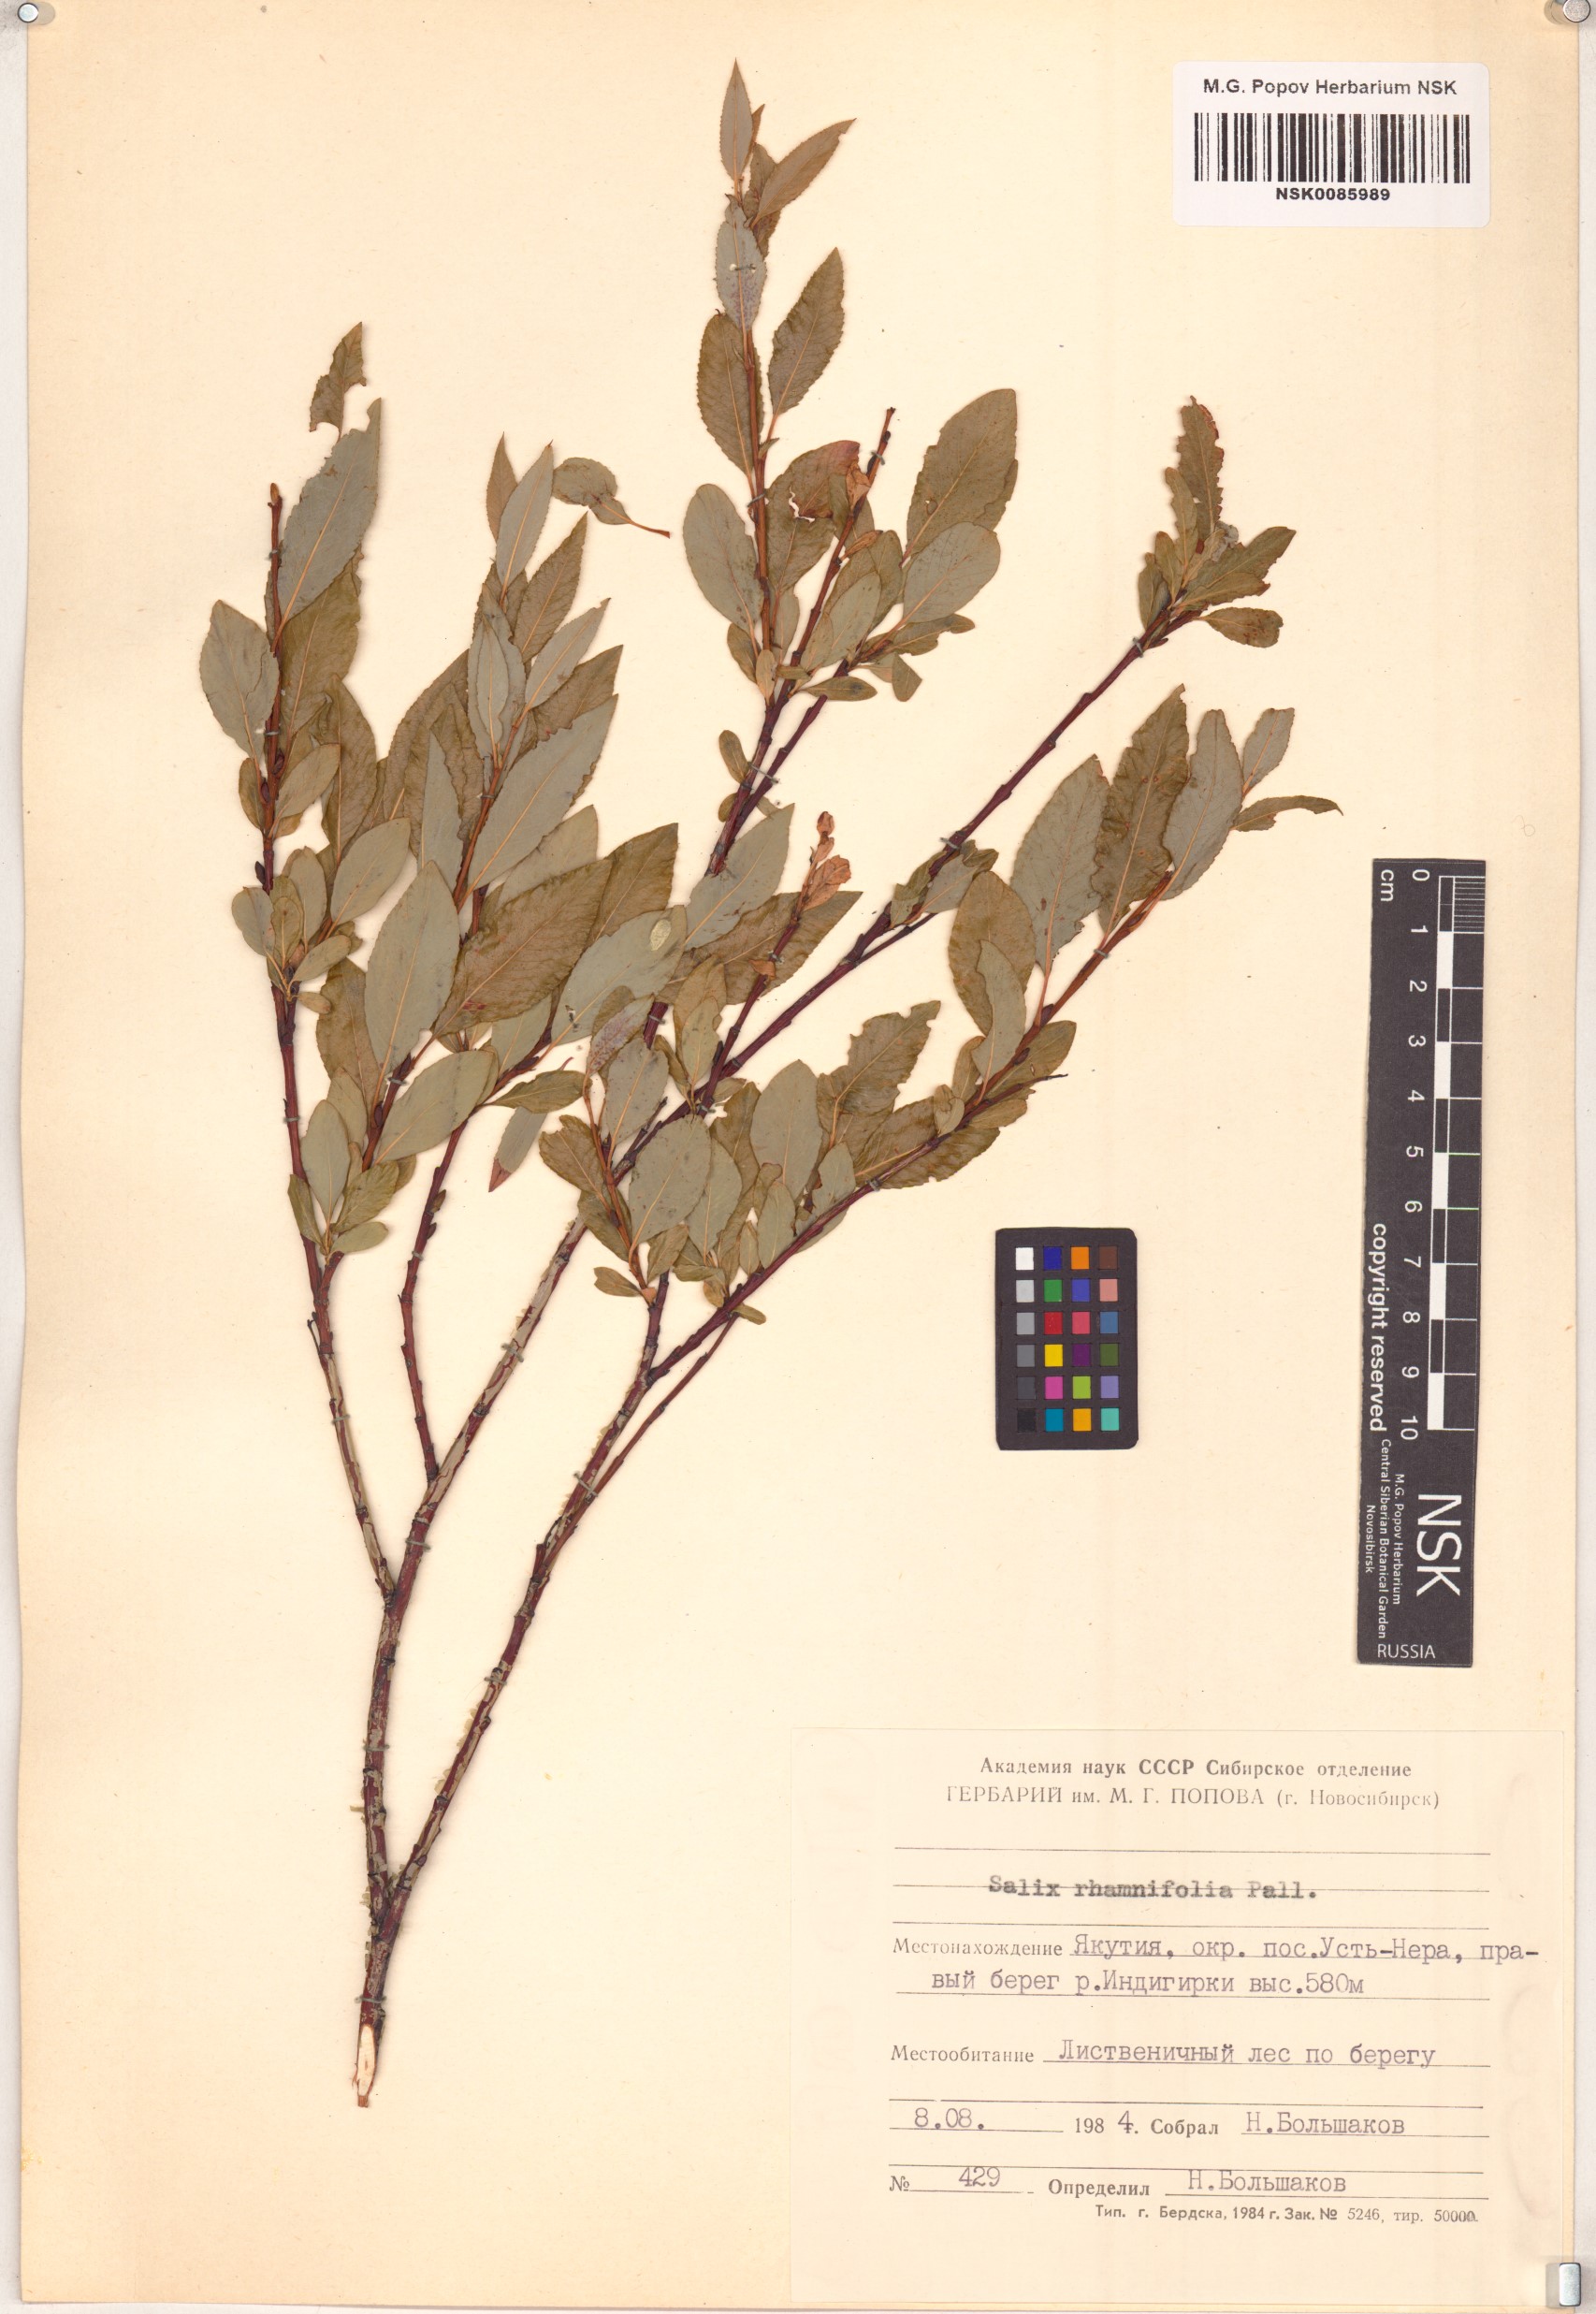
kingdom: Plantae
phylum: Tracheophyta
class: Magnoliopsida
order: Malpighiales
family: Salicaceae
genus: Salix
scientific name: Salix rhamnifolia
